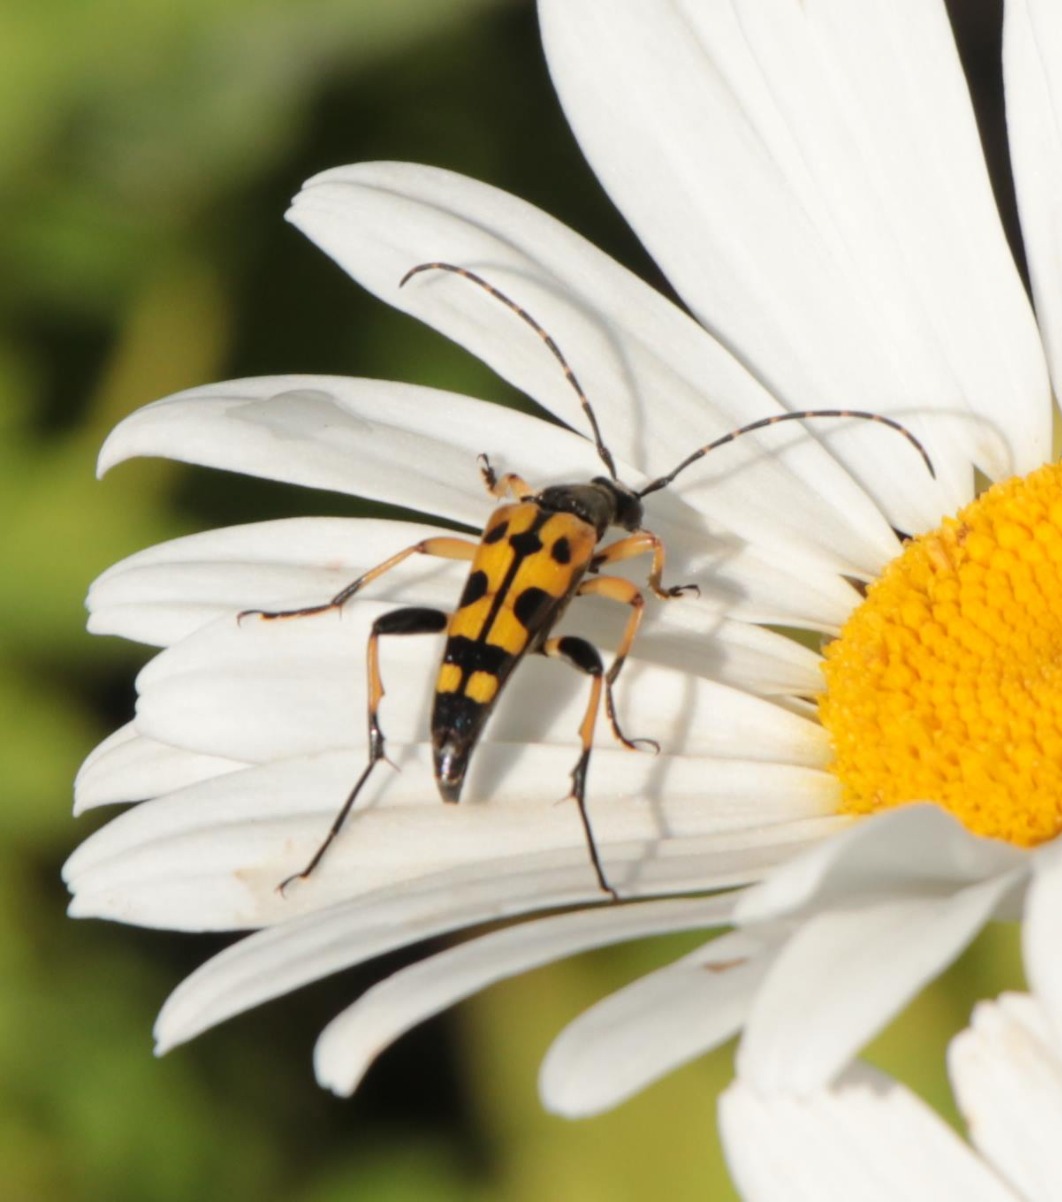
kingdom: Animalia
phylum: Arthropoda
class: Insecta
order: Coleoptera
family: Cerambycidae
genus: Rutpela
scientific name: Rutpela maculata
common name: Sydlig blomsterbuk
